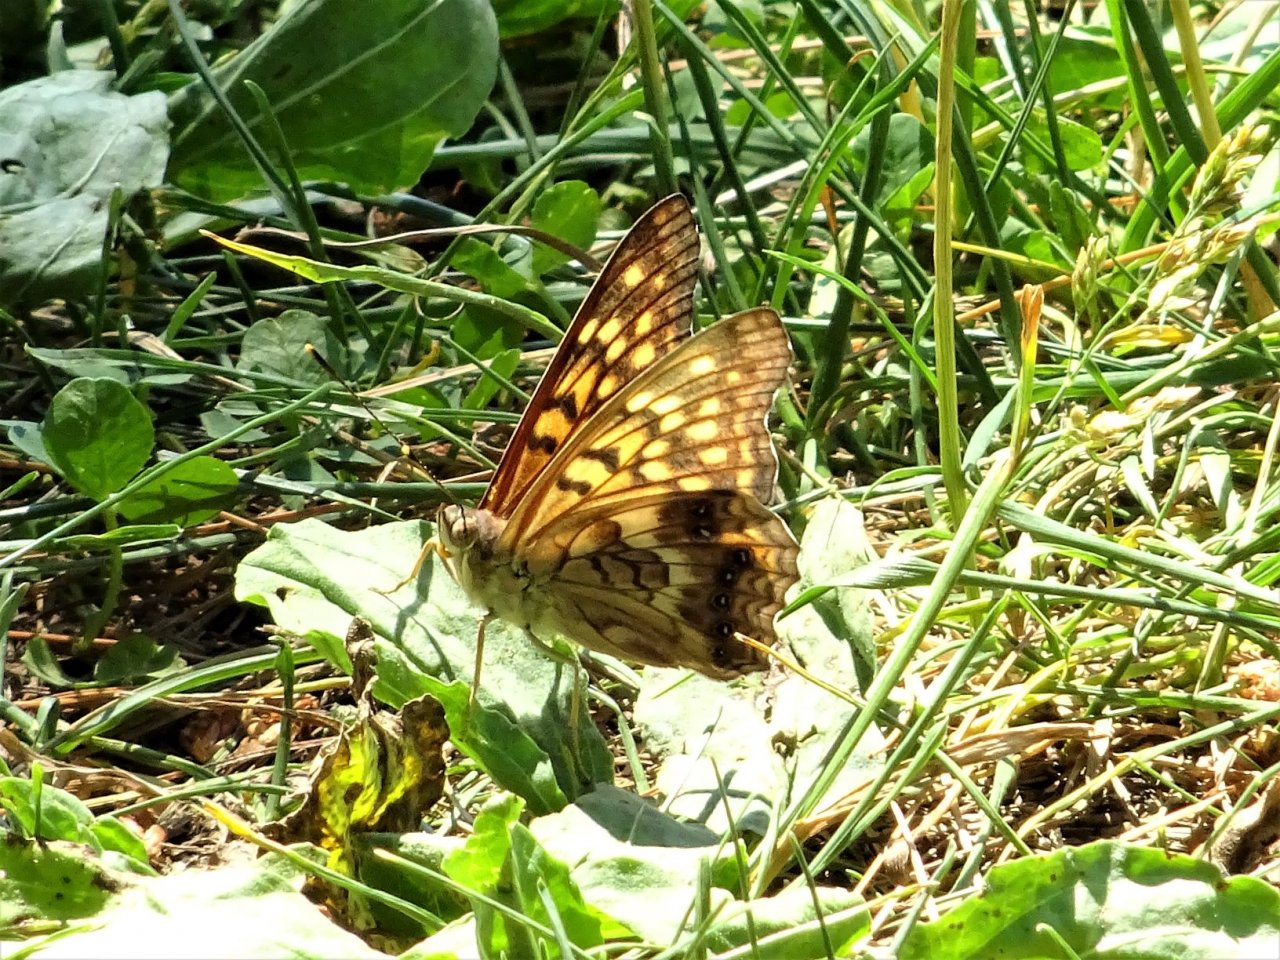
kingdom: Animalia
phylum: Arthropoda
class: Insecta
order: Lepidoptera
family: Nymphalidae
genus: Asterocampa
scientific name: Asterocampa clyton
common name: Tawny Emperor
